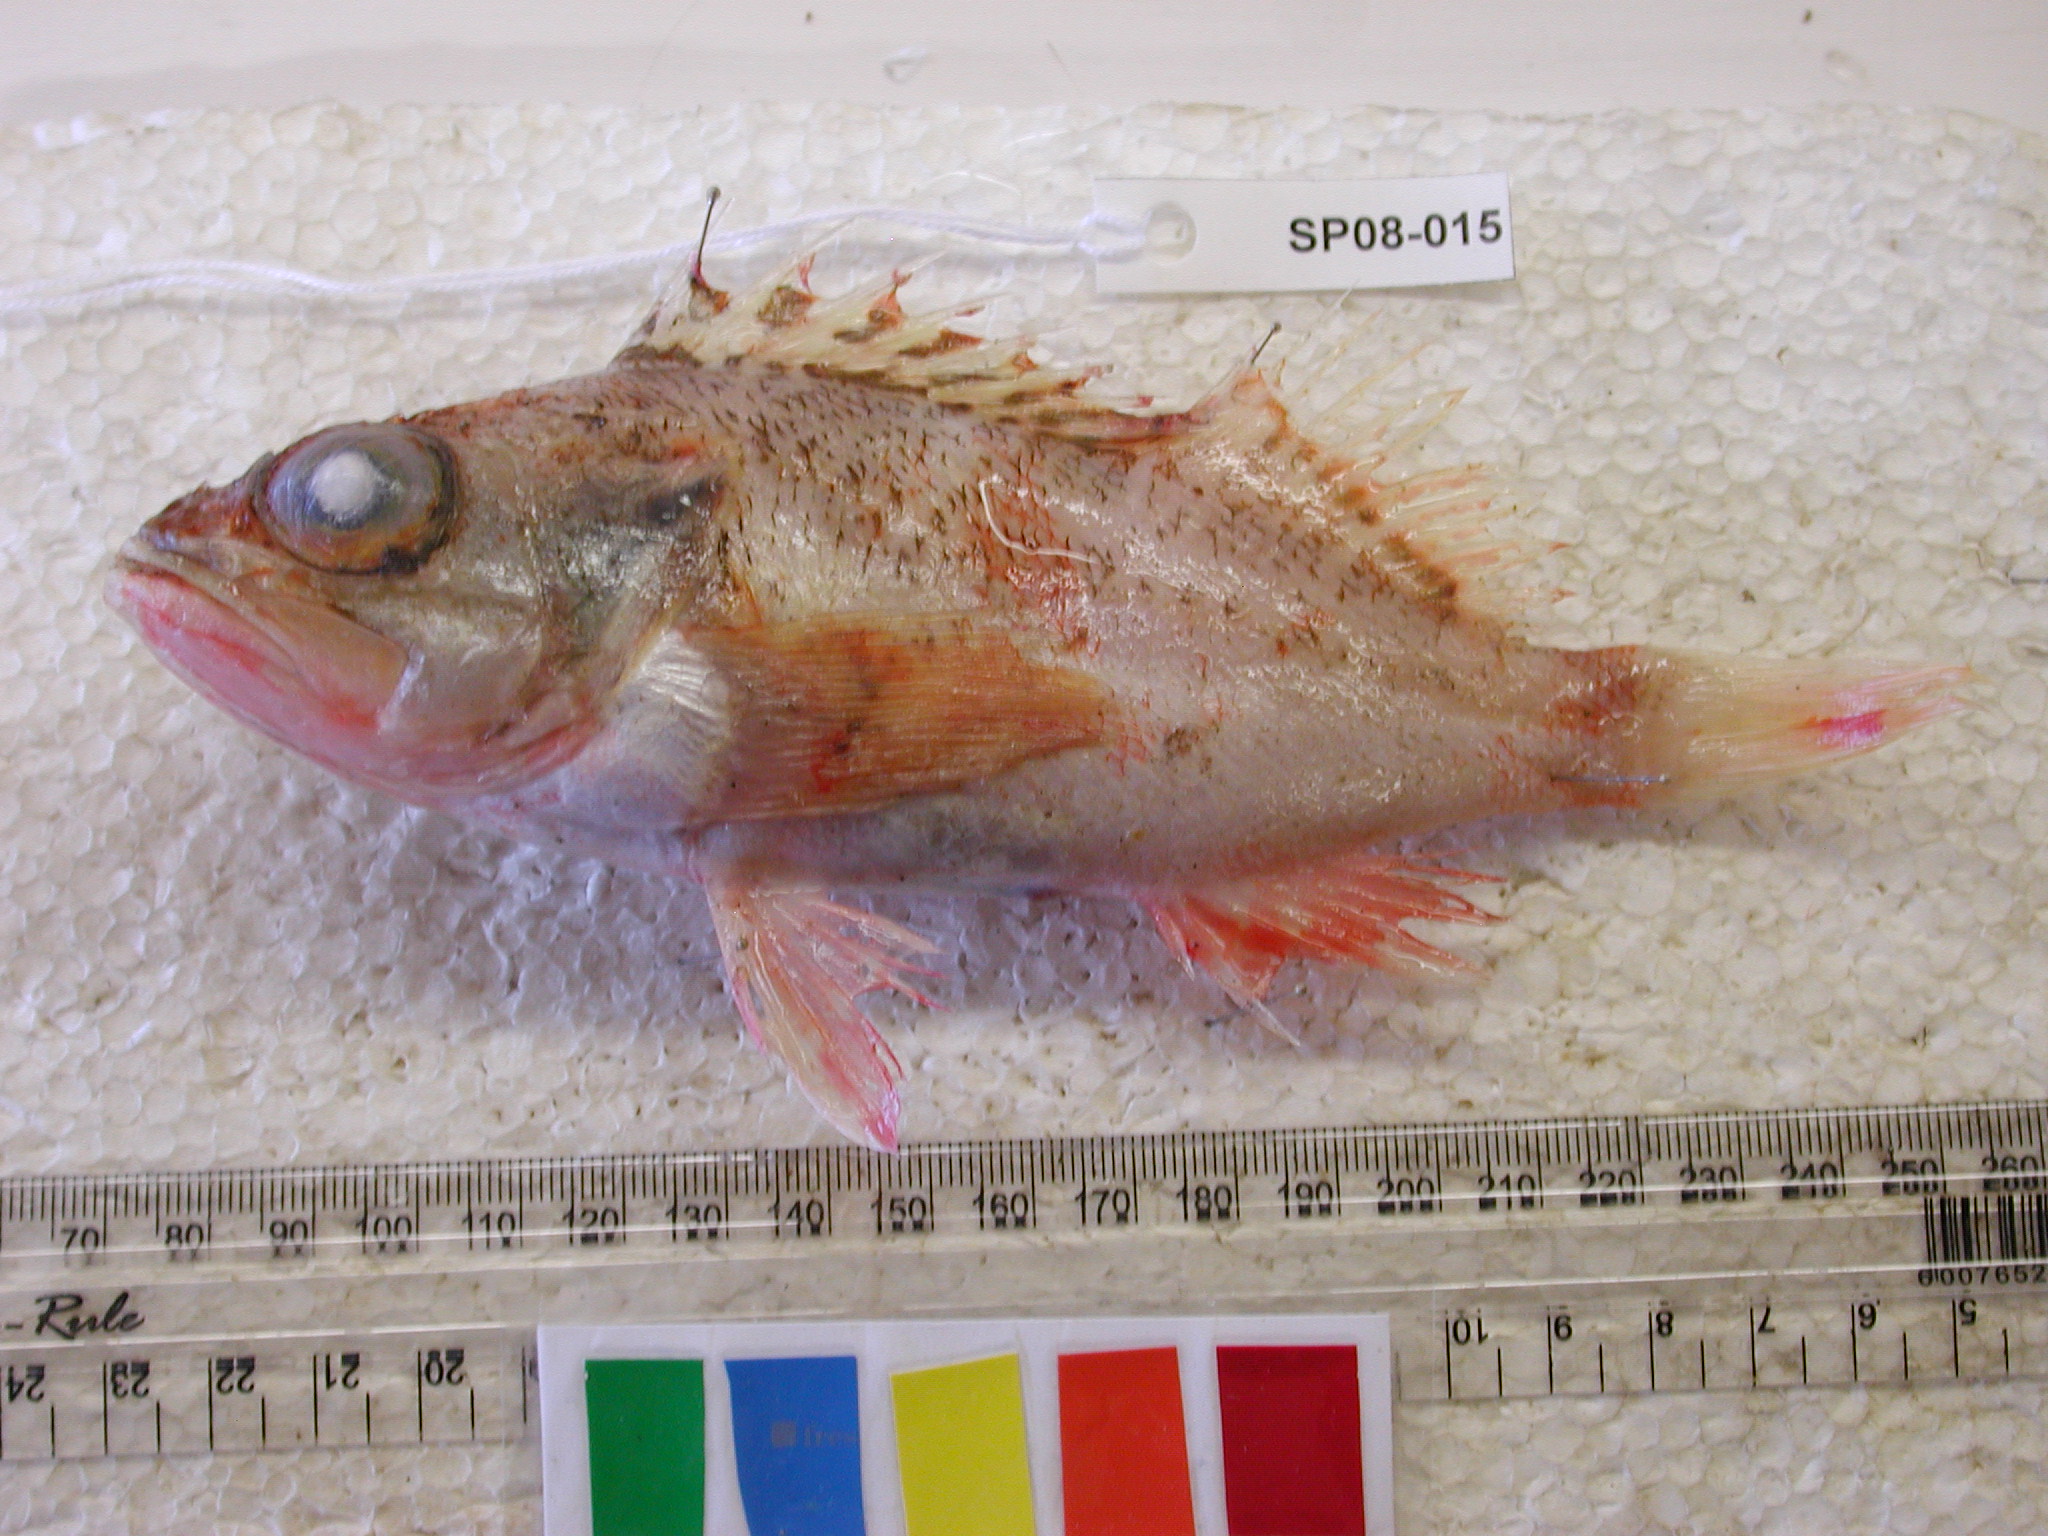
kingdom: Animalia
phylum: Chordata
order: Scorpaeniformes
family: Sebastidae
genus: Helicolenus
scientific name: Helicolenus dactylopterus
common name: Blackbelly rosefish
